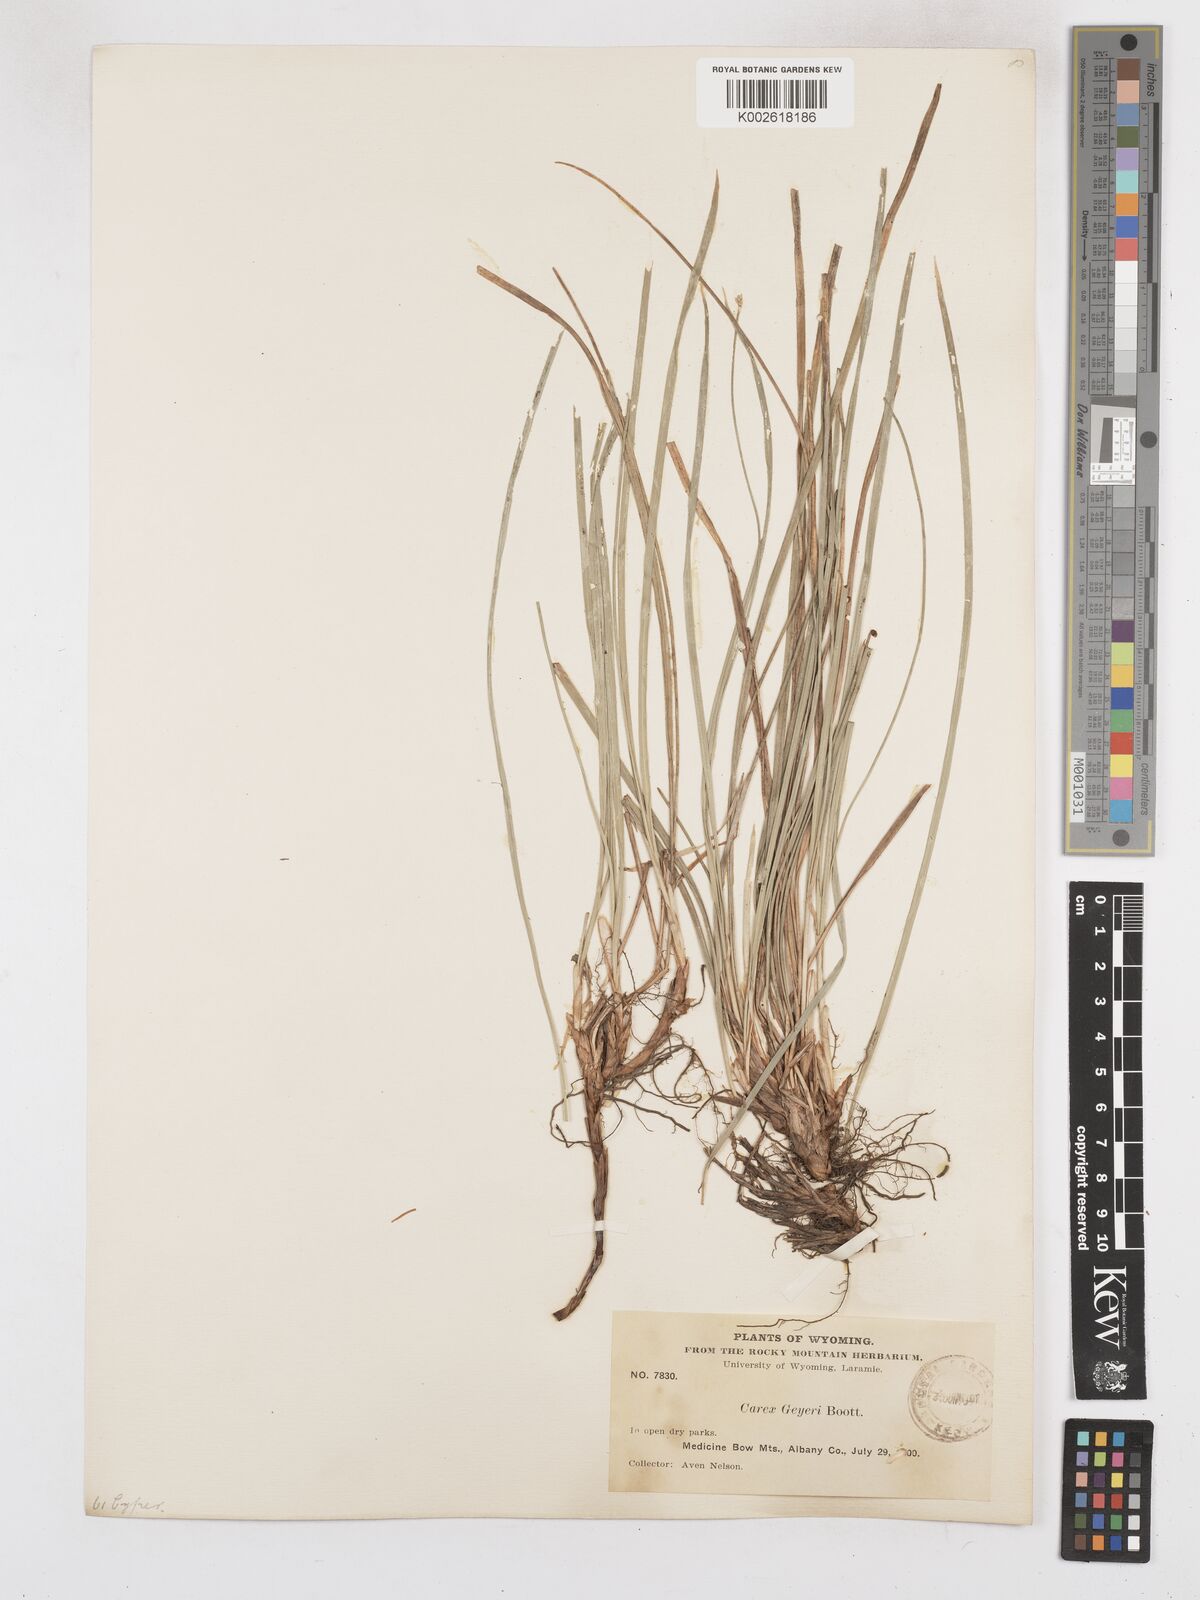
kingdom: Plantae
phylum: Tracheophyta
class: Liliopsida
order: Poales
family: Cyperaceae
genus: Carex
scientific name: Carex geyeri
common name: Elk sedge
